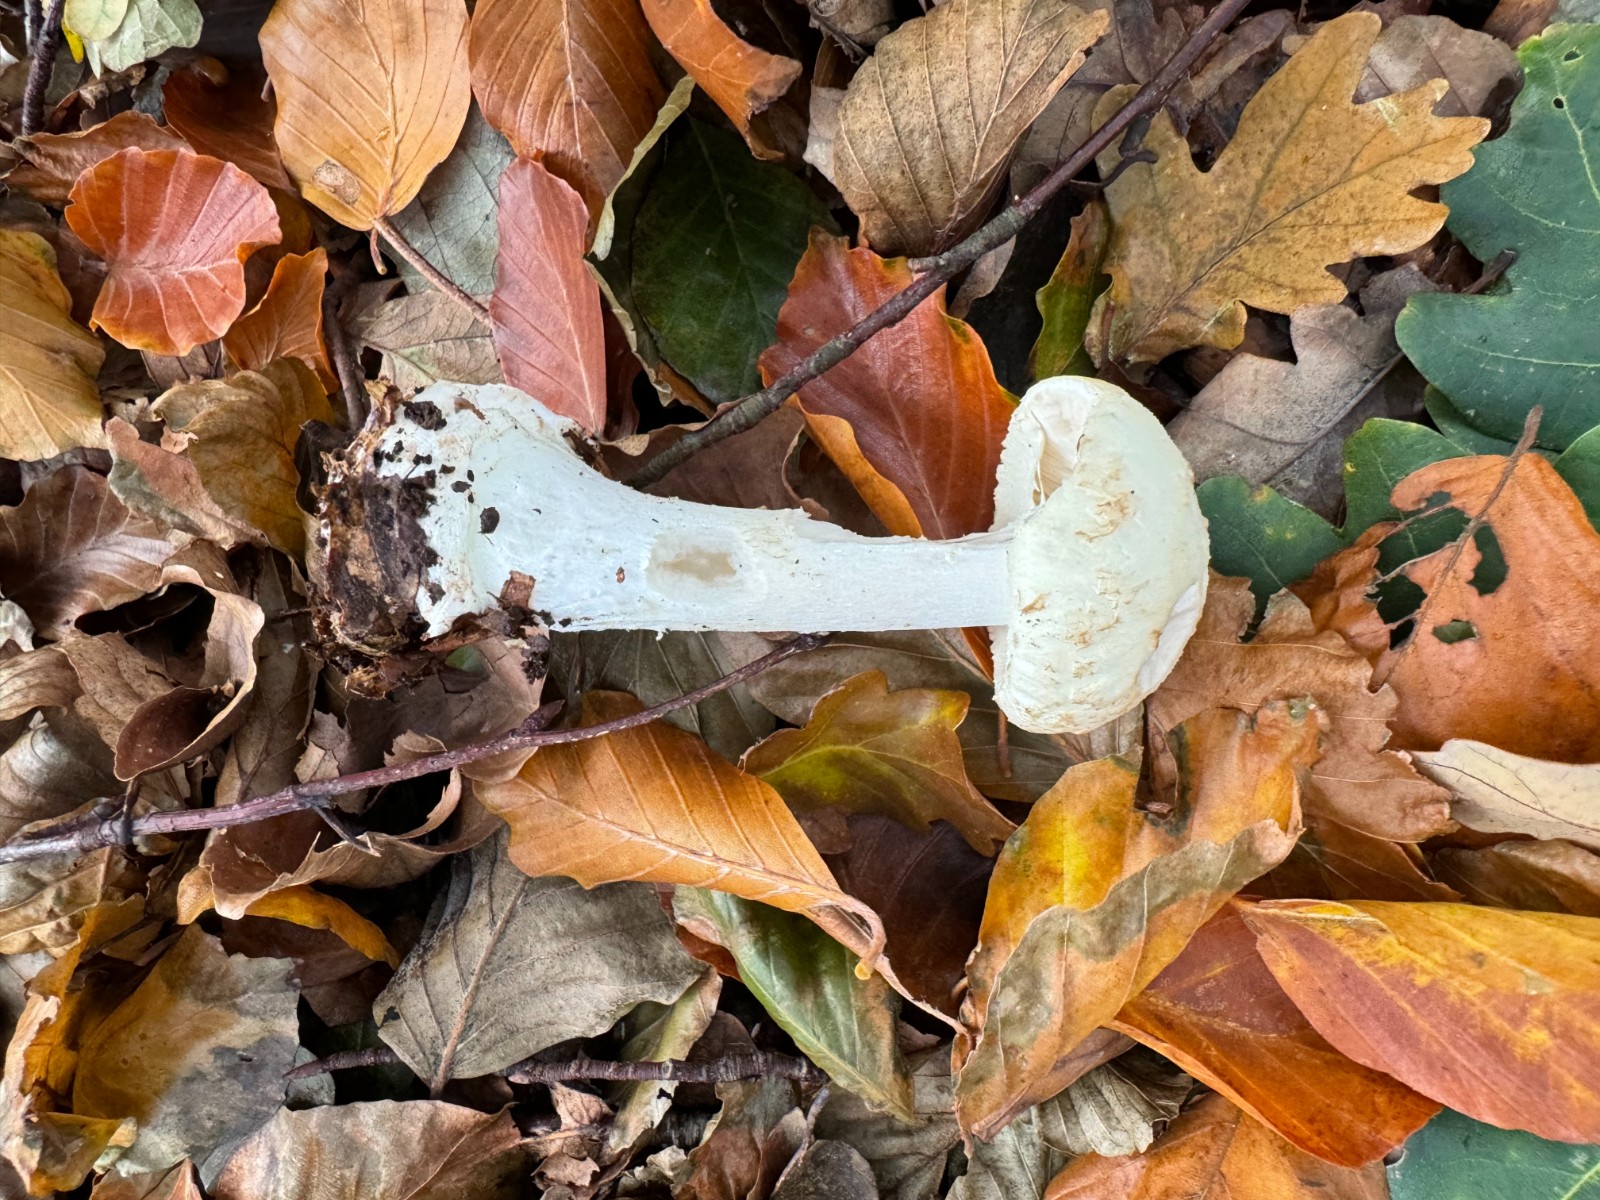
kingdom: Fungi
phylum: Basidiomycota
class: Agaricomycetes
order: Agaricales
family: Amanitaceae
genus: Amanita
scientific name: Amanita citrina
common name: kugleknoldet fluesvamp
